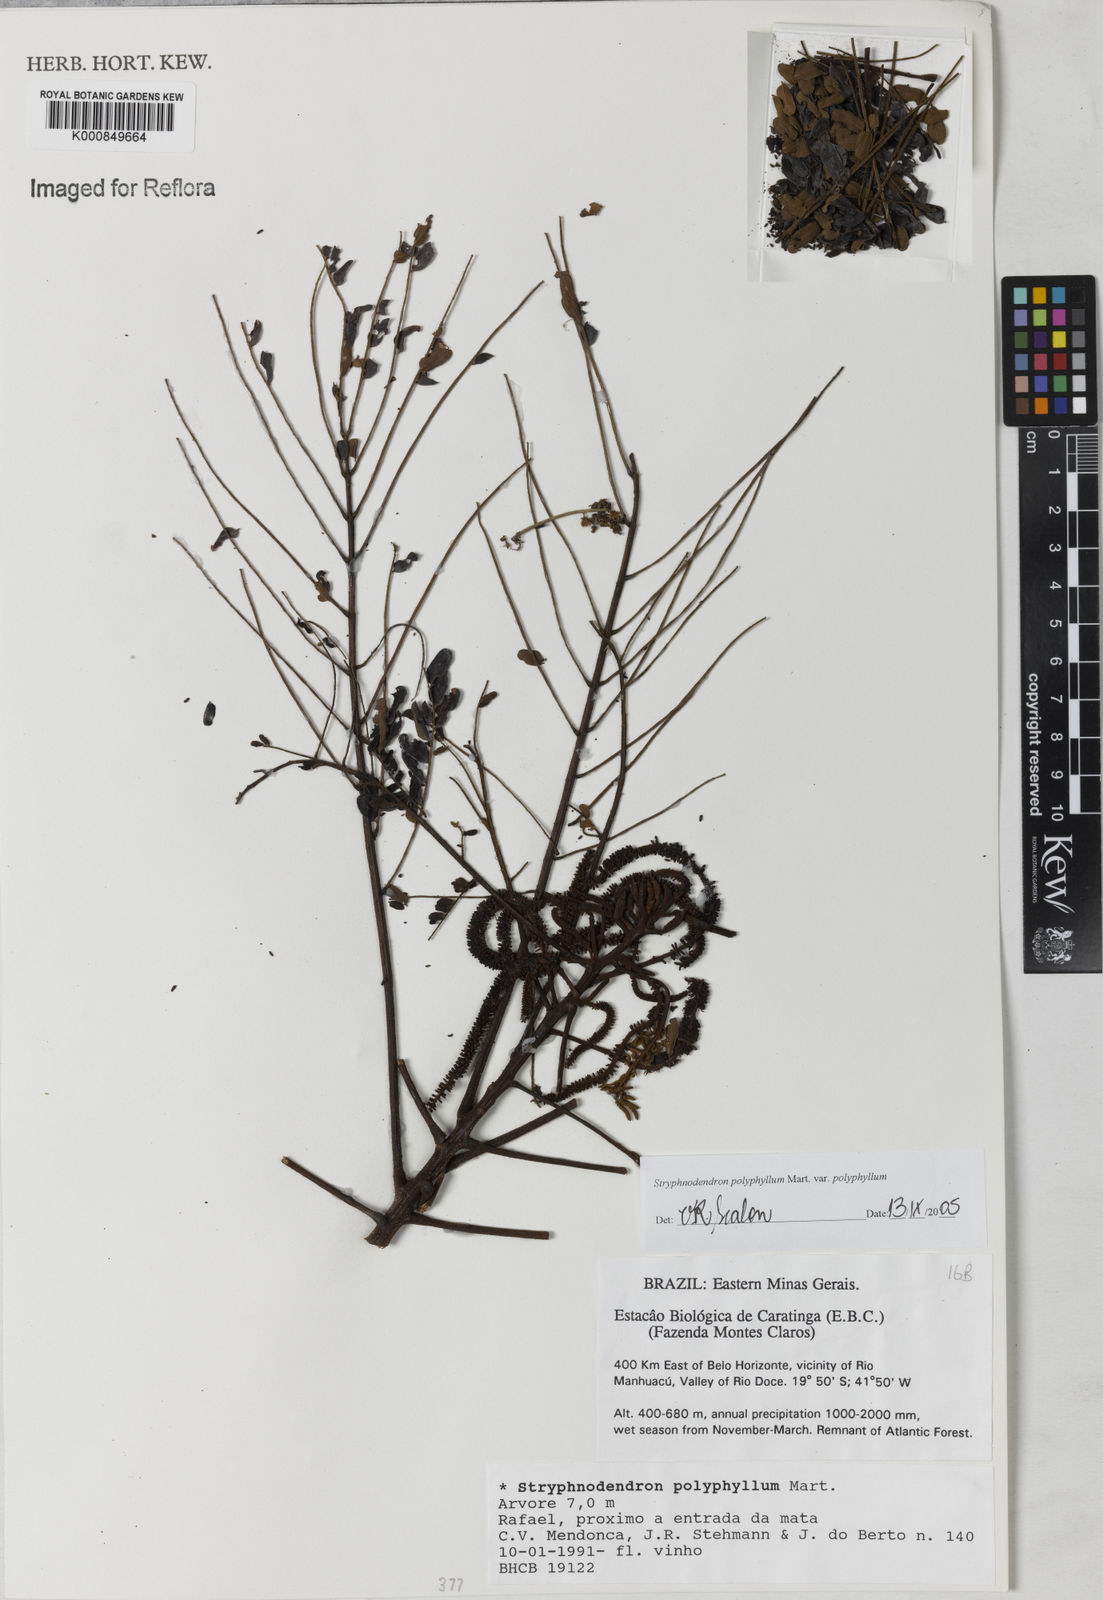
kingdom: Plantae
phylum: Tracheophyta
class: Magnoliopsida
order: Fabales
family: Fabaceae
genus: Stryphnodendron
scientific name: Stryphnodendron polyphyllum
